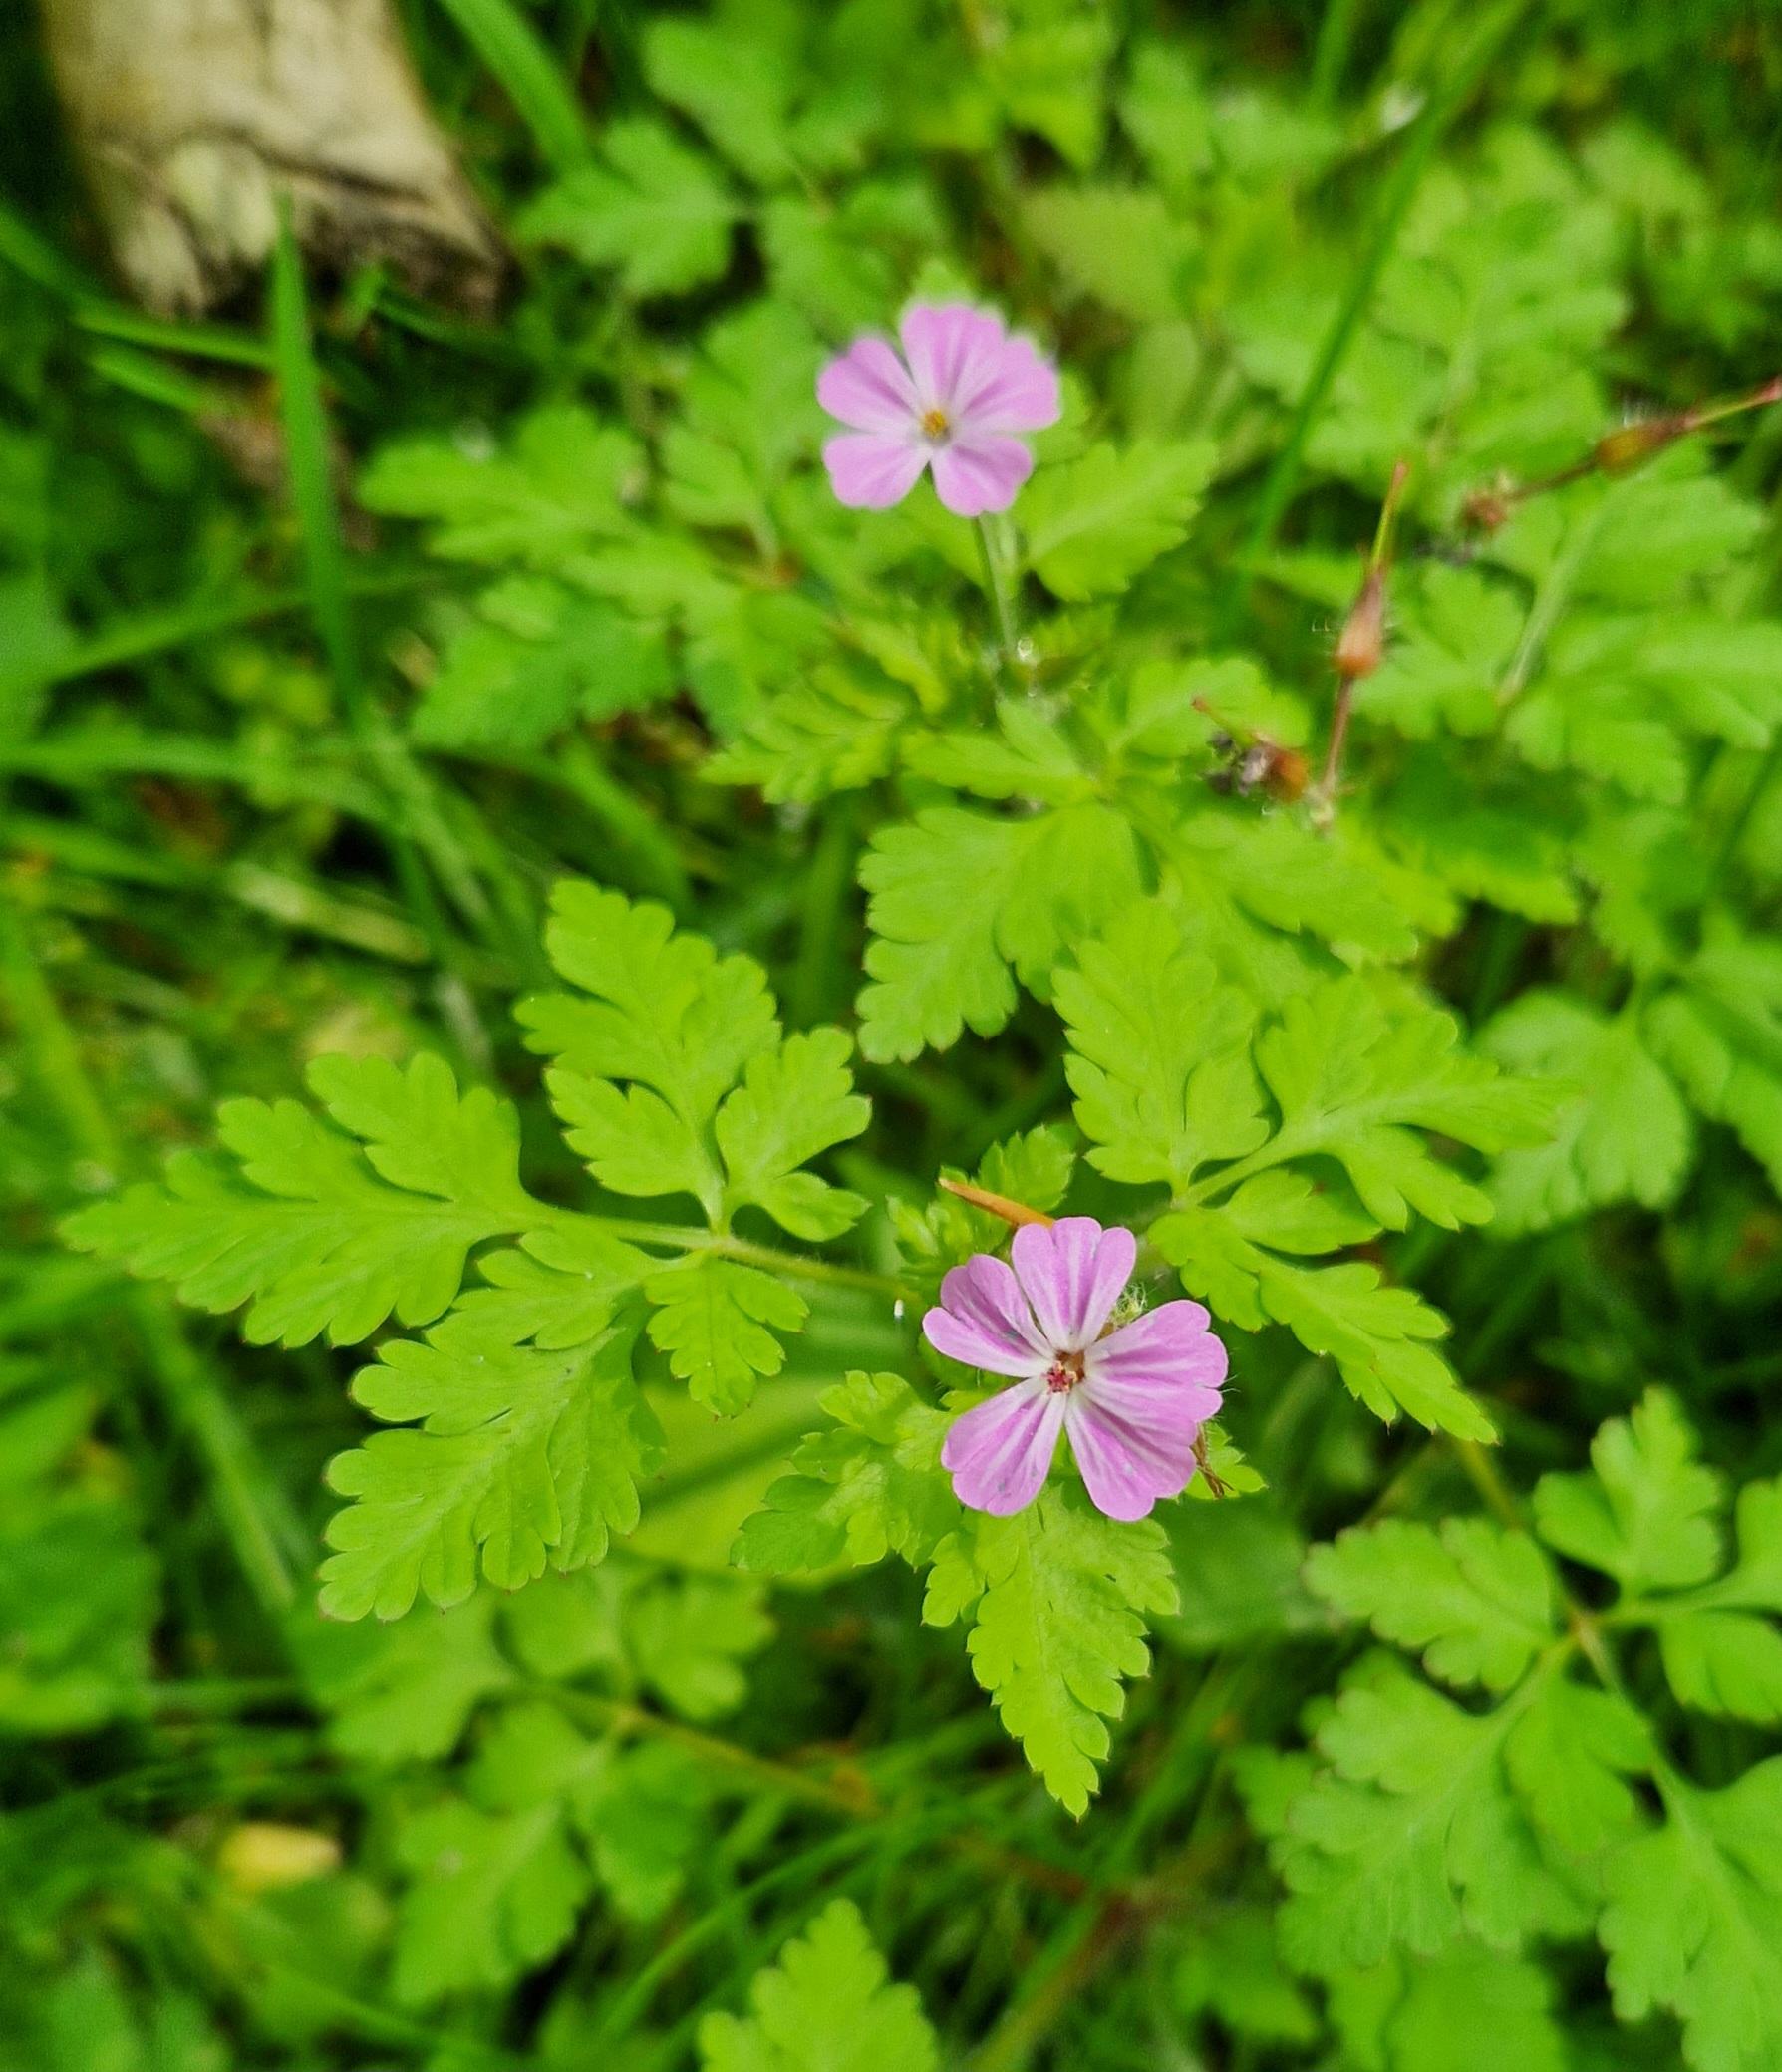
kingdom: Plantae
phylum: Tracheophyta
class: Magnoliopsida
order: Geraniales
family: Geraniaceae
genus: Geranium
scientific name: Geranium robertianum
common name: Stinkende storkenæb
